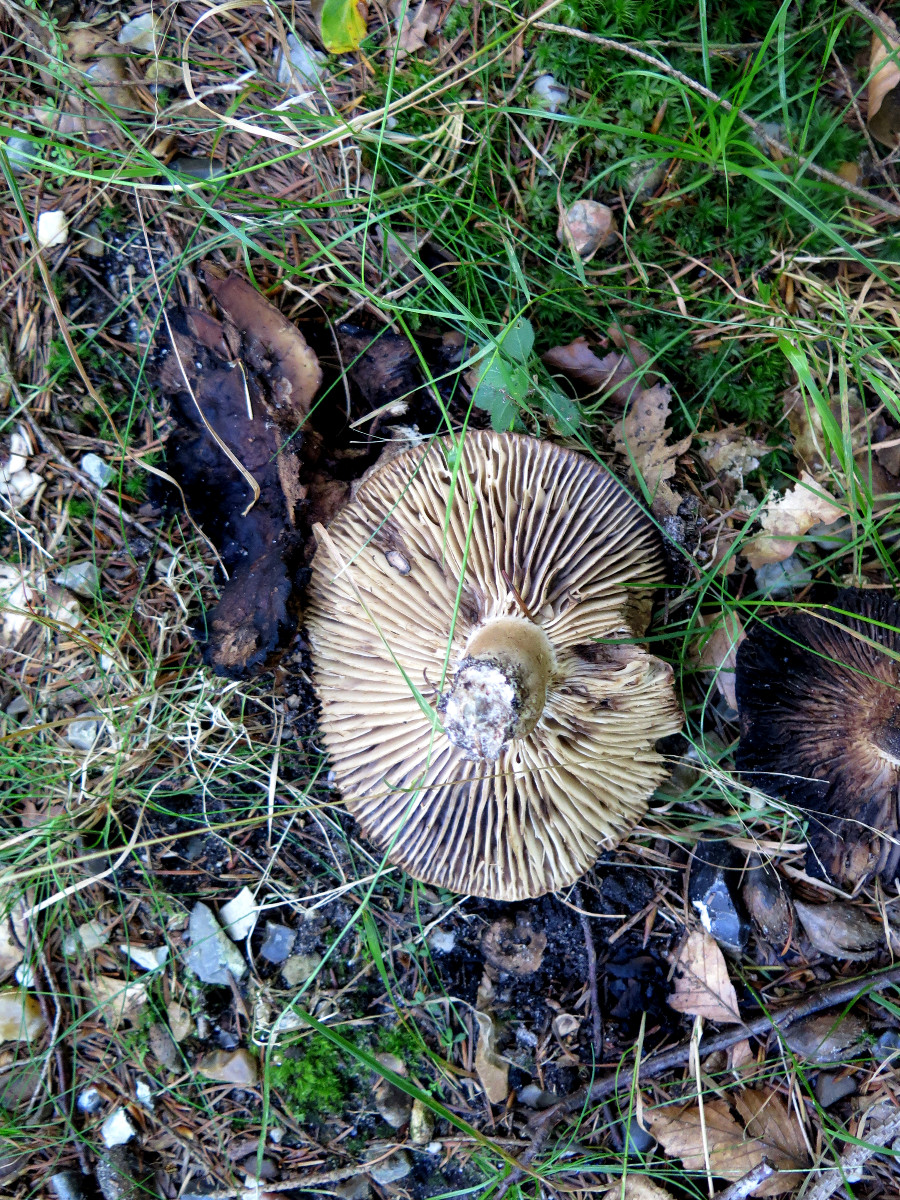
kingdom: Fungi
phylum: Basidiomycota
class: Agaricomycetes
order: Russulales
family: Russulaceae
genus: Russula
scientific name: Russula adusta
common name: sværtende skørhat
